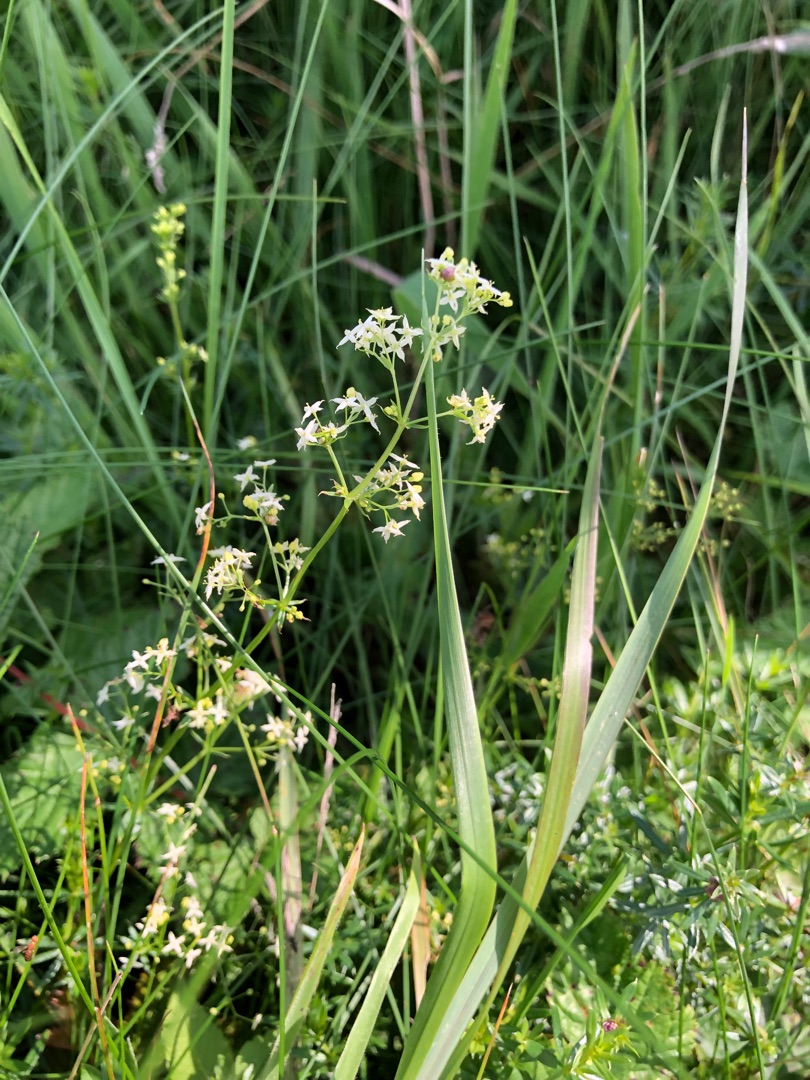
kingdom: Plantae
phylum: Tracheophyta
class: Magnoliopsida
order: Gentianales
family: Rubiaceae
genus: Galium
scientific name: Galium mollugo
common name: Hvid snerre
